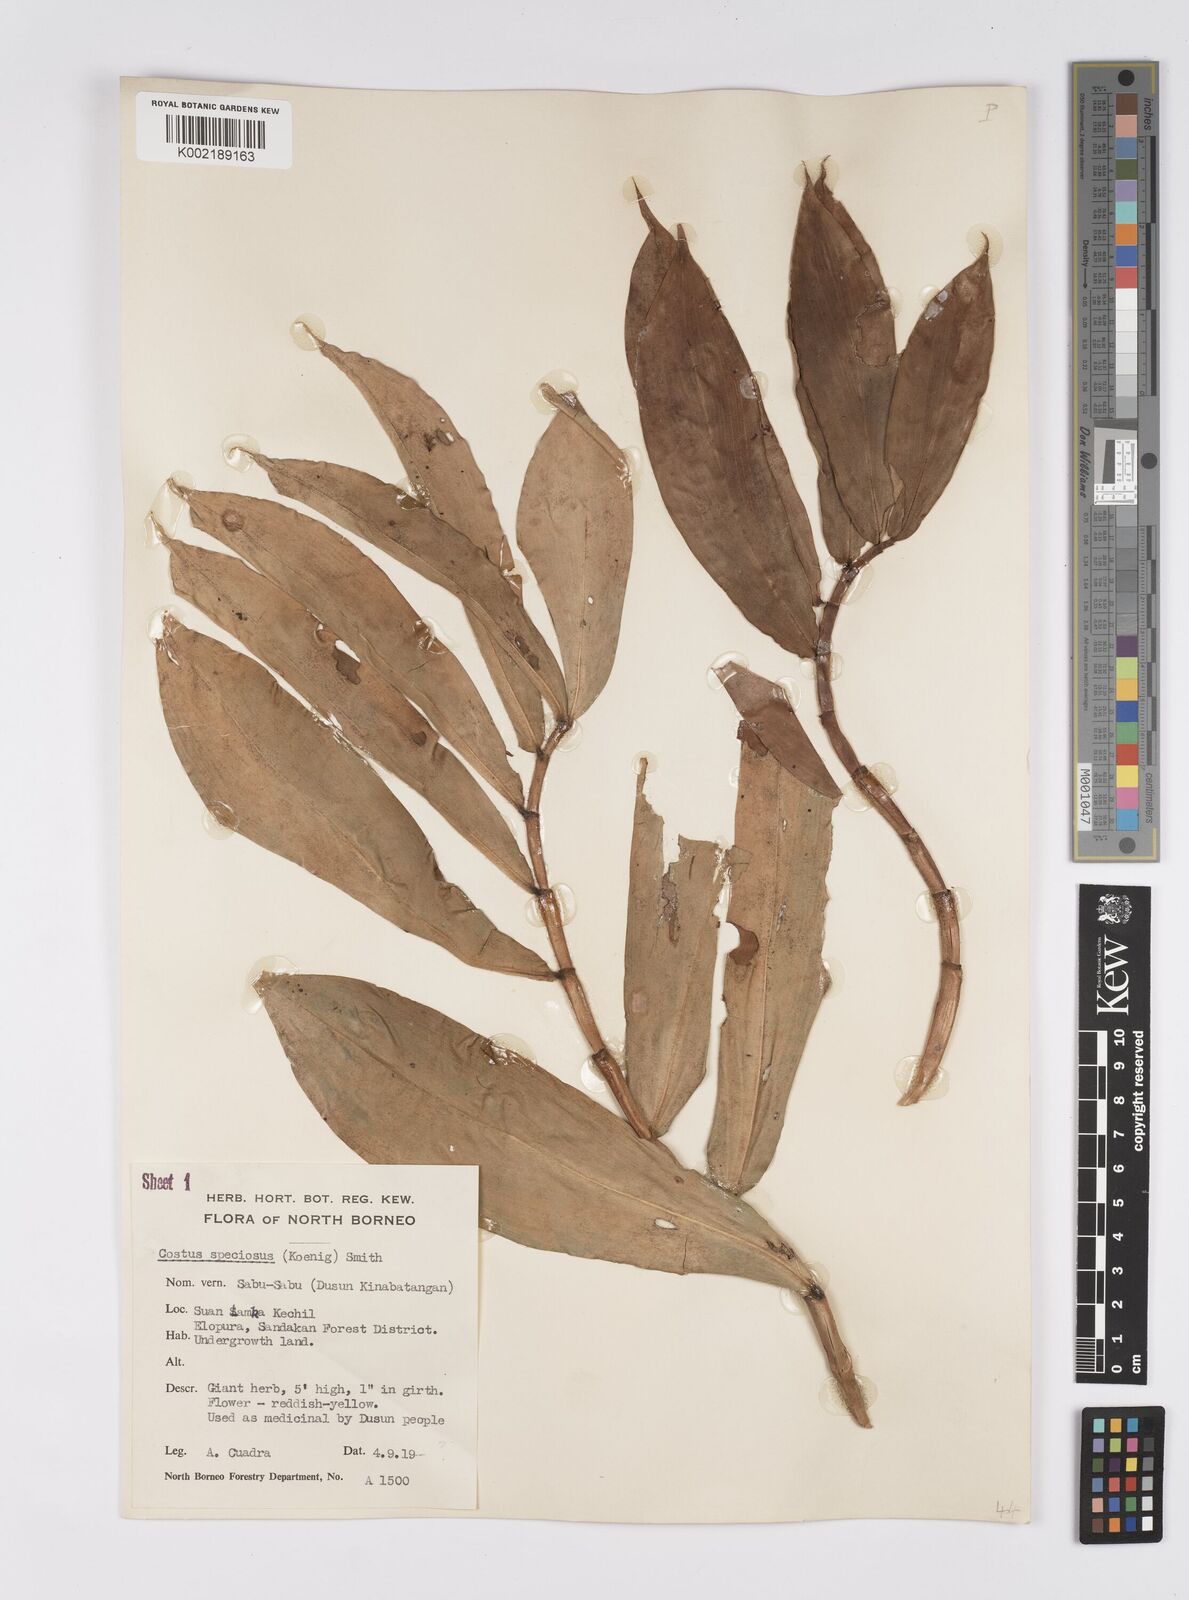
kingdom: Plantae
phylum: Tracheophyta
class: Liliopsida
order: Zingiberales
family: Costaceae
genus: Hellenia
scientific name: Hellenia speciosa
